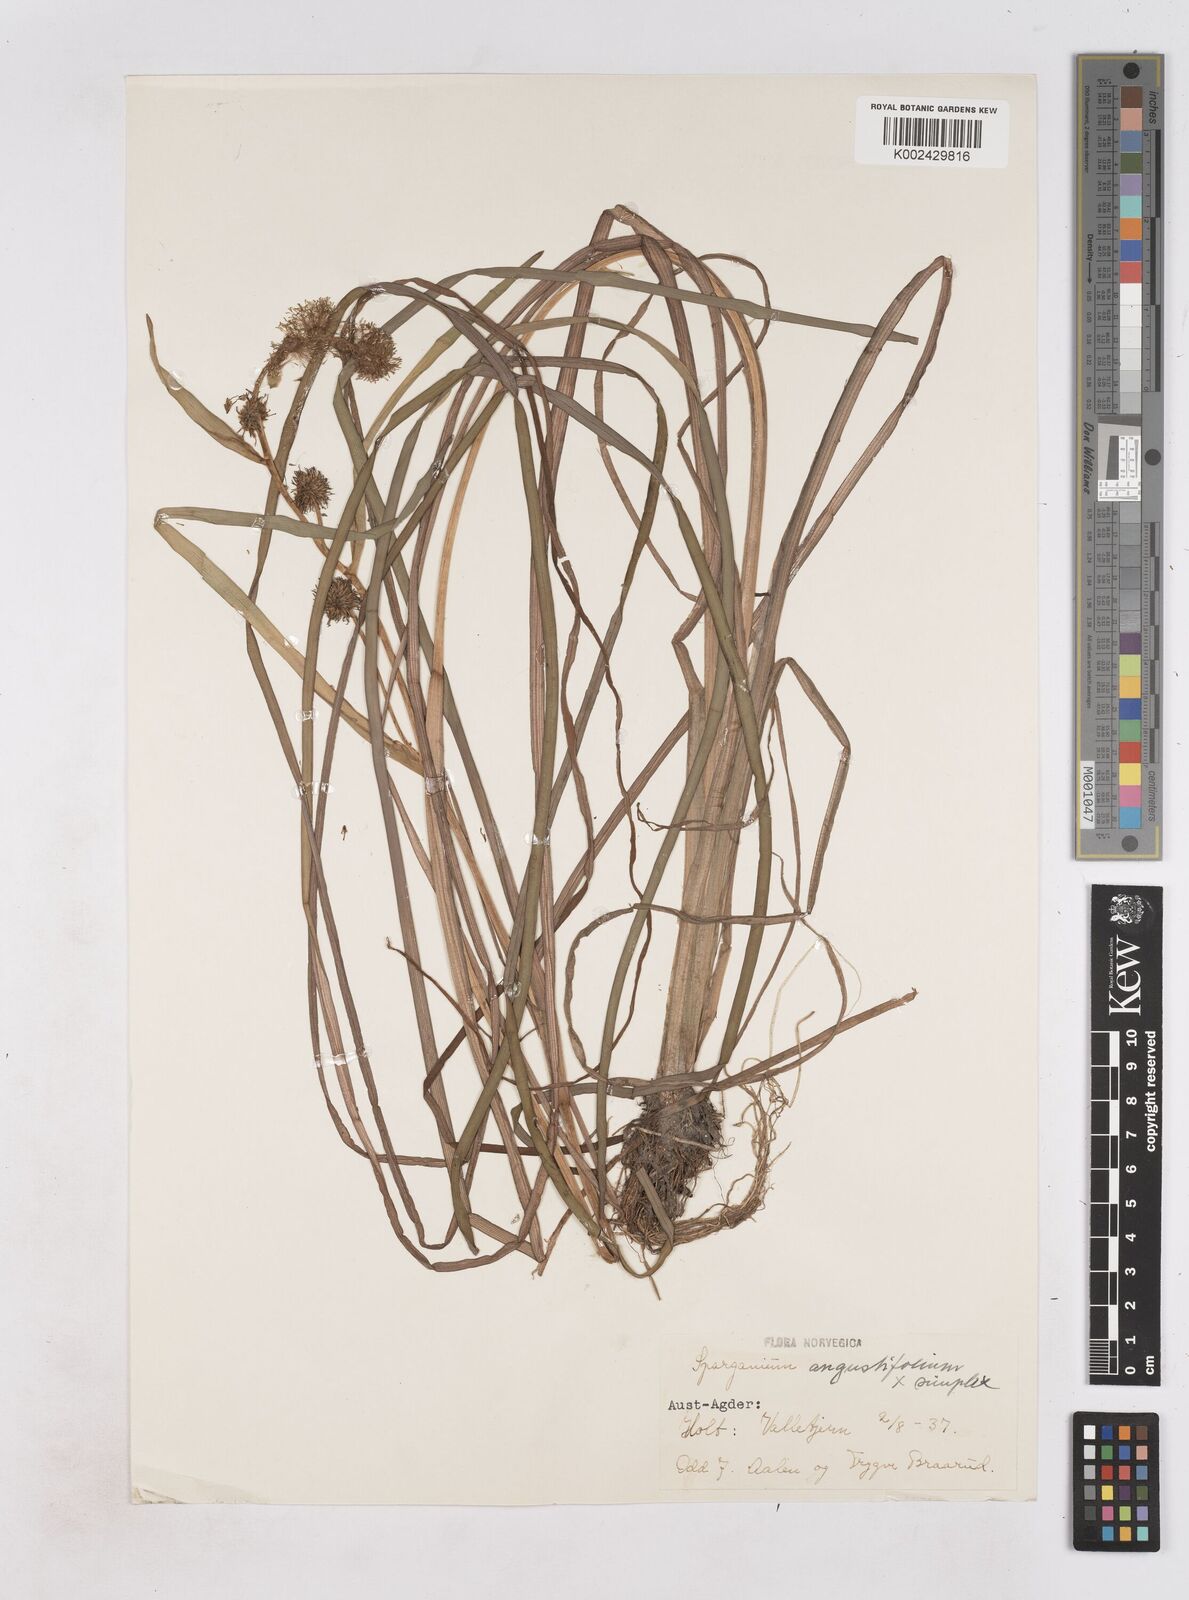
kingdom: Plantae
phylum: Tracheophyta
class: Liliopsida
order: Poales
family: Typhaceae
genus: Sparganium
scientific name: Sparganium
